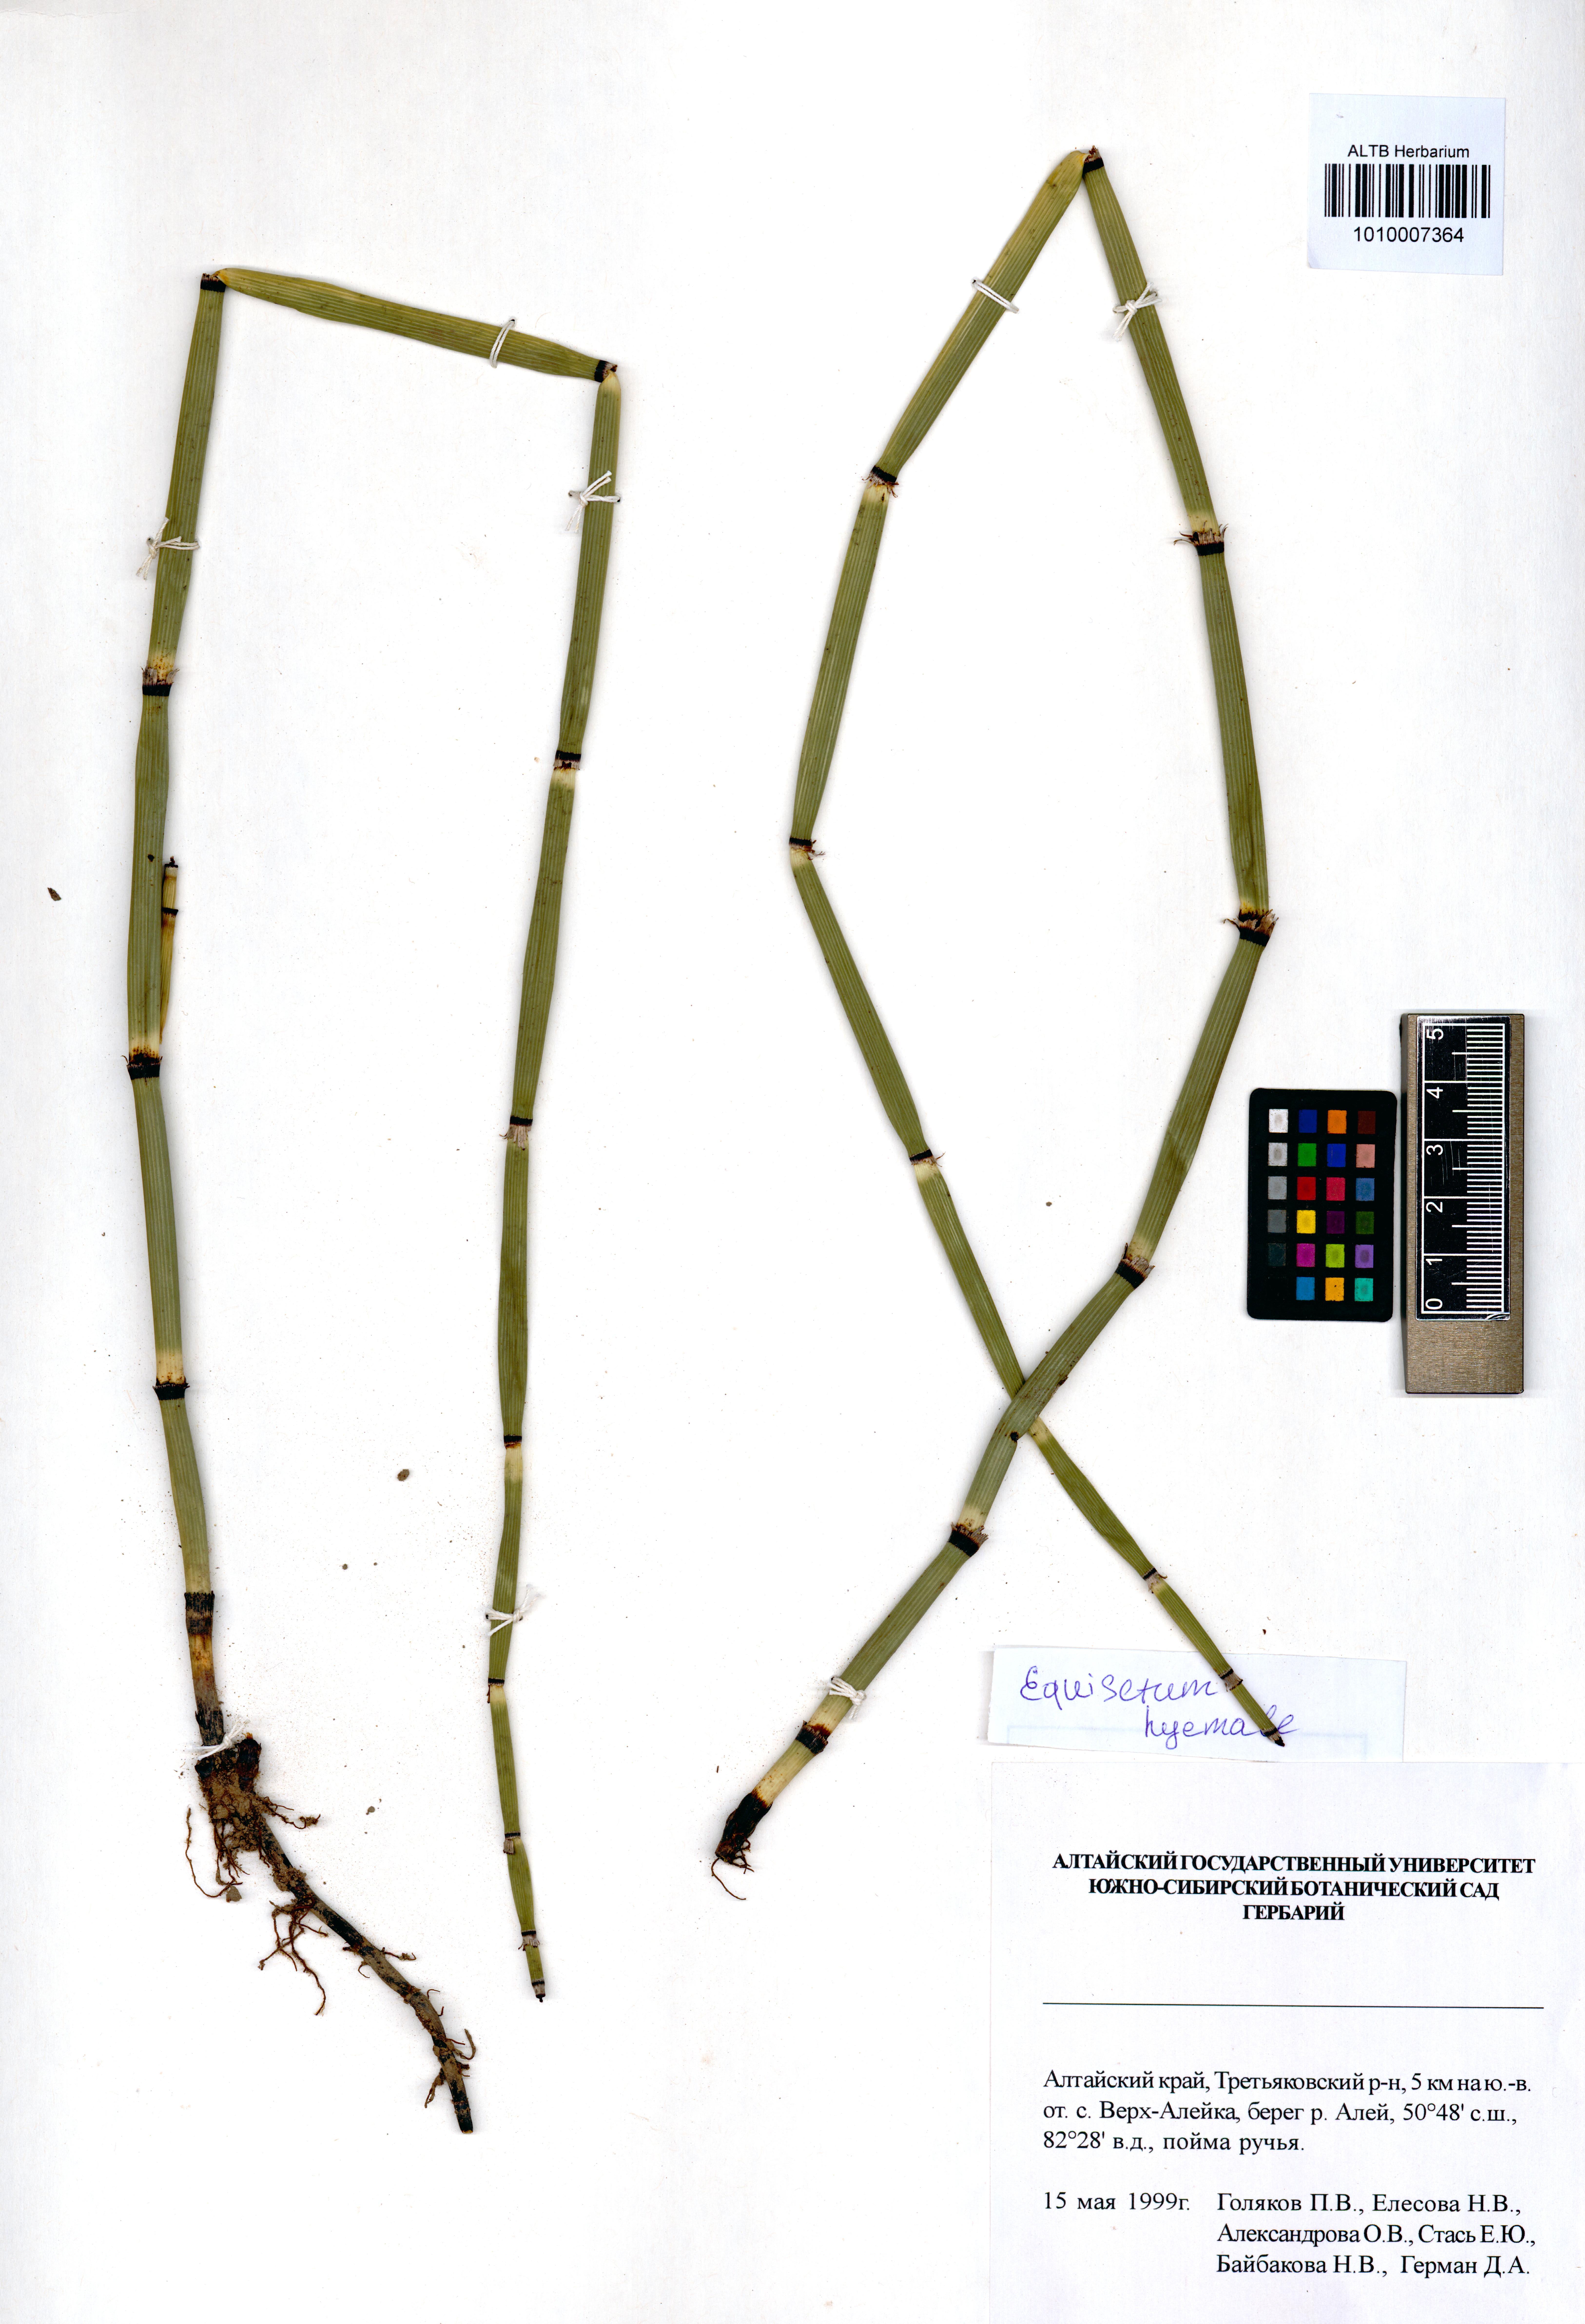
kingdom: Plantae
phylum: Tracheophyta
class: Polypodiopsida
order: Equisetales
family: Equisetaceae
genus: Equisetum
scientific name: Equisetum hyemale
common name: Rough horsetail
